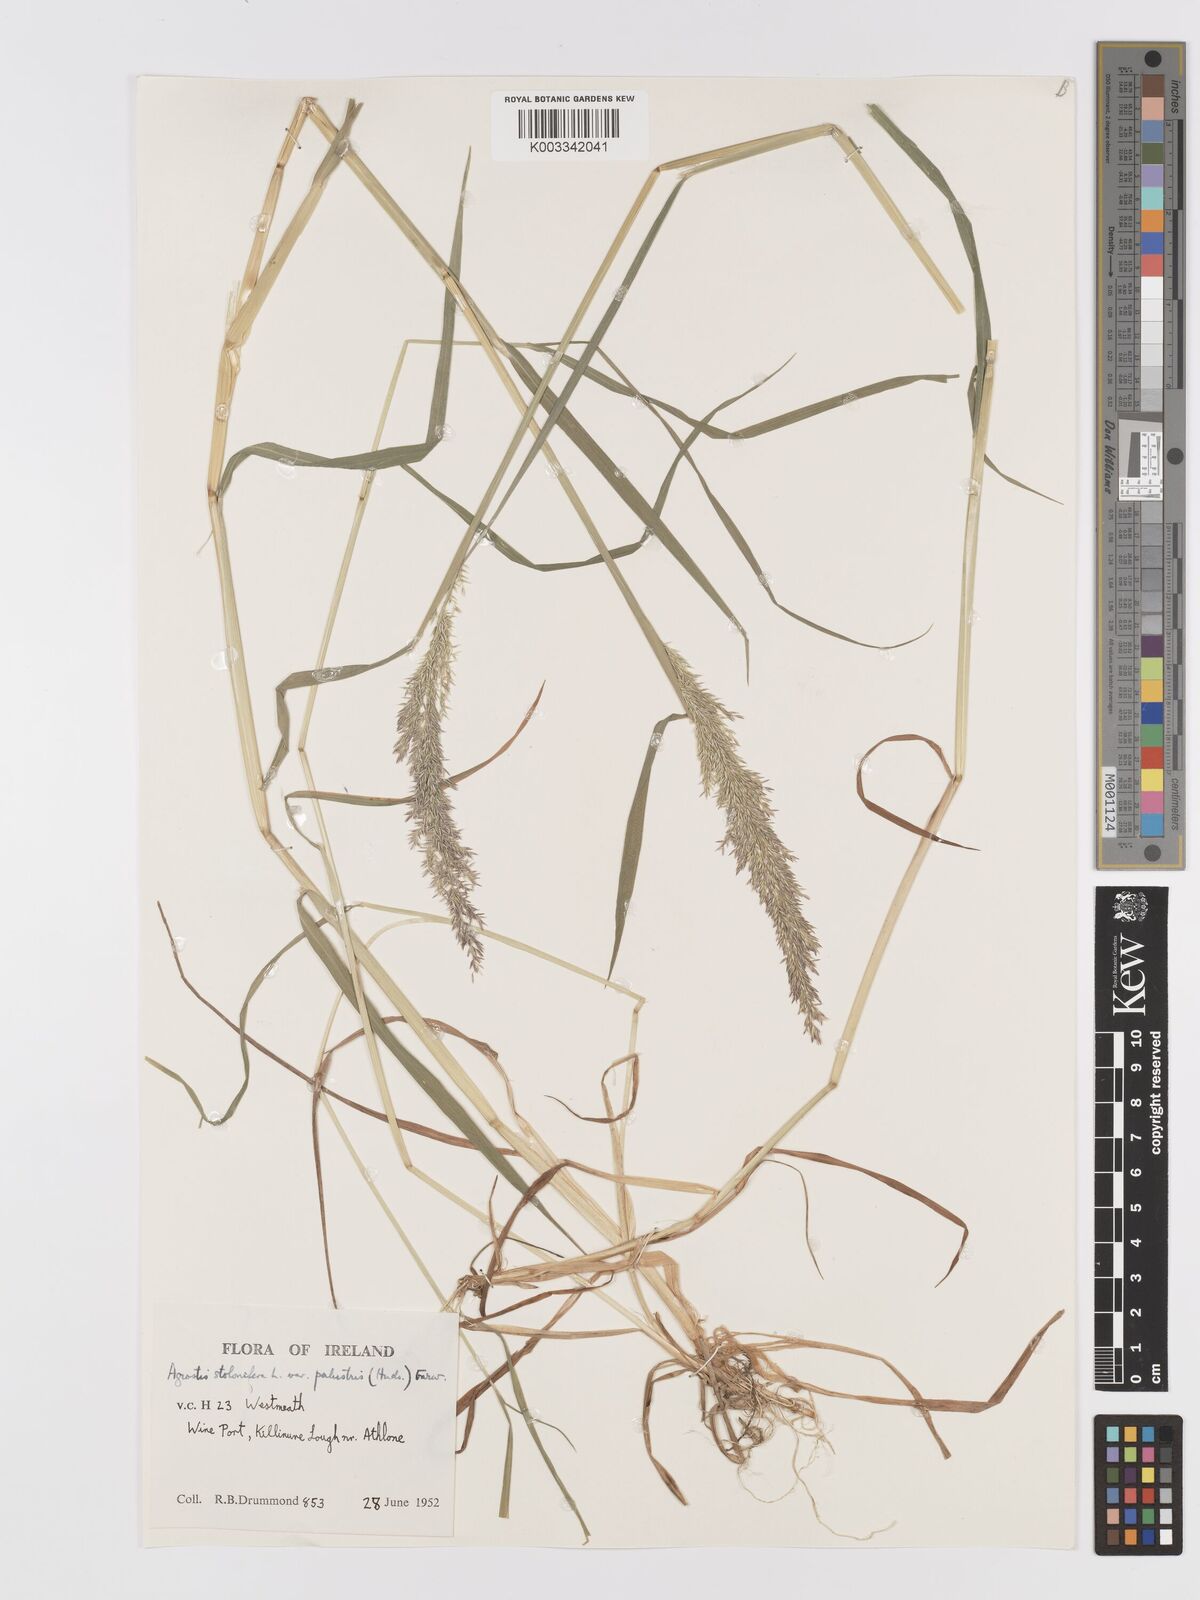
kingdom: Plantae
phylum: Tracheophyta
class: Liliopsida
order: Poales
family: Poaceae
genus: Agrostis
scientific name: Agrostis stolonifera
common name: Creeping bentgrass
